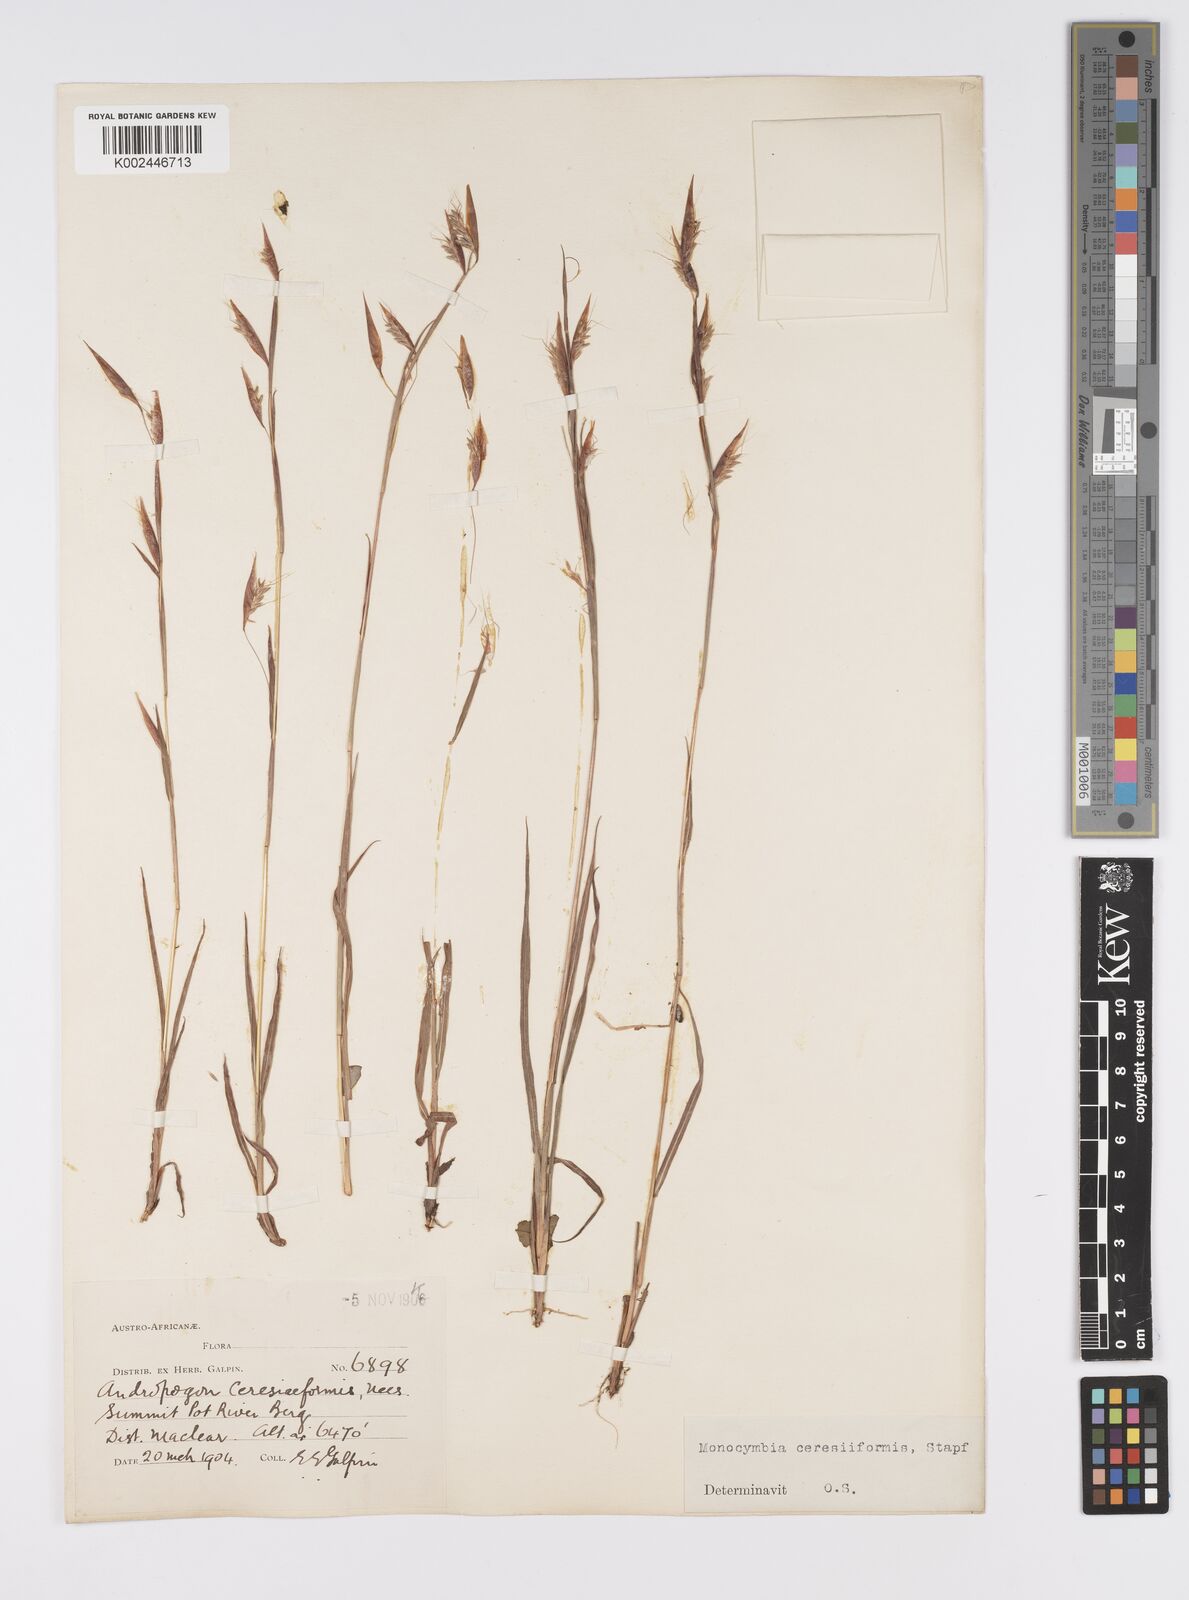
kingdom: Plantae
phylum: Tracheophyta
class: Liliopsida
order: Poales
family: Poaceae
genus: Monocymbium
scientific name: Monocymbium ceresiiforme
